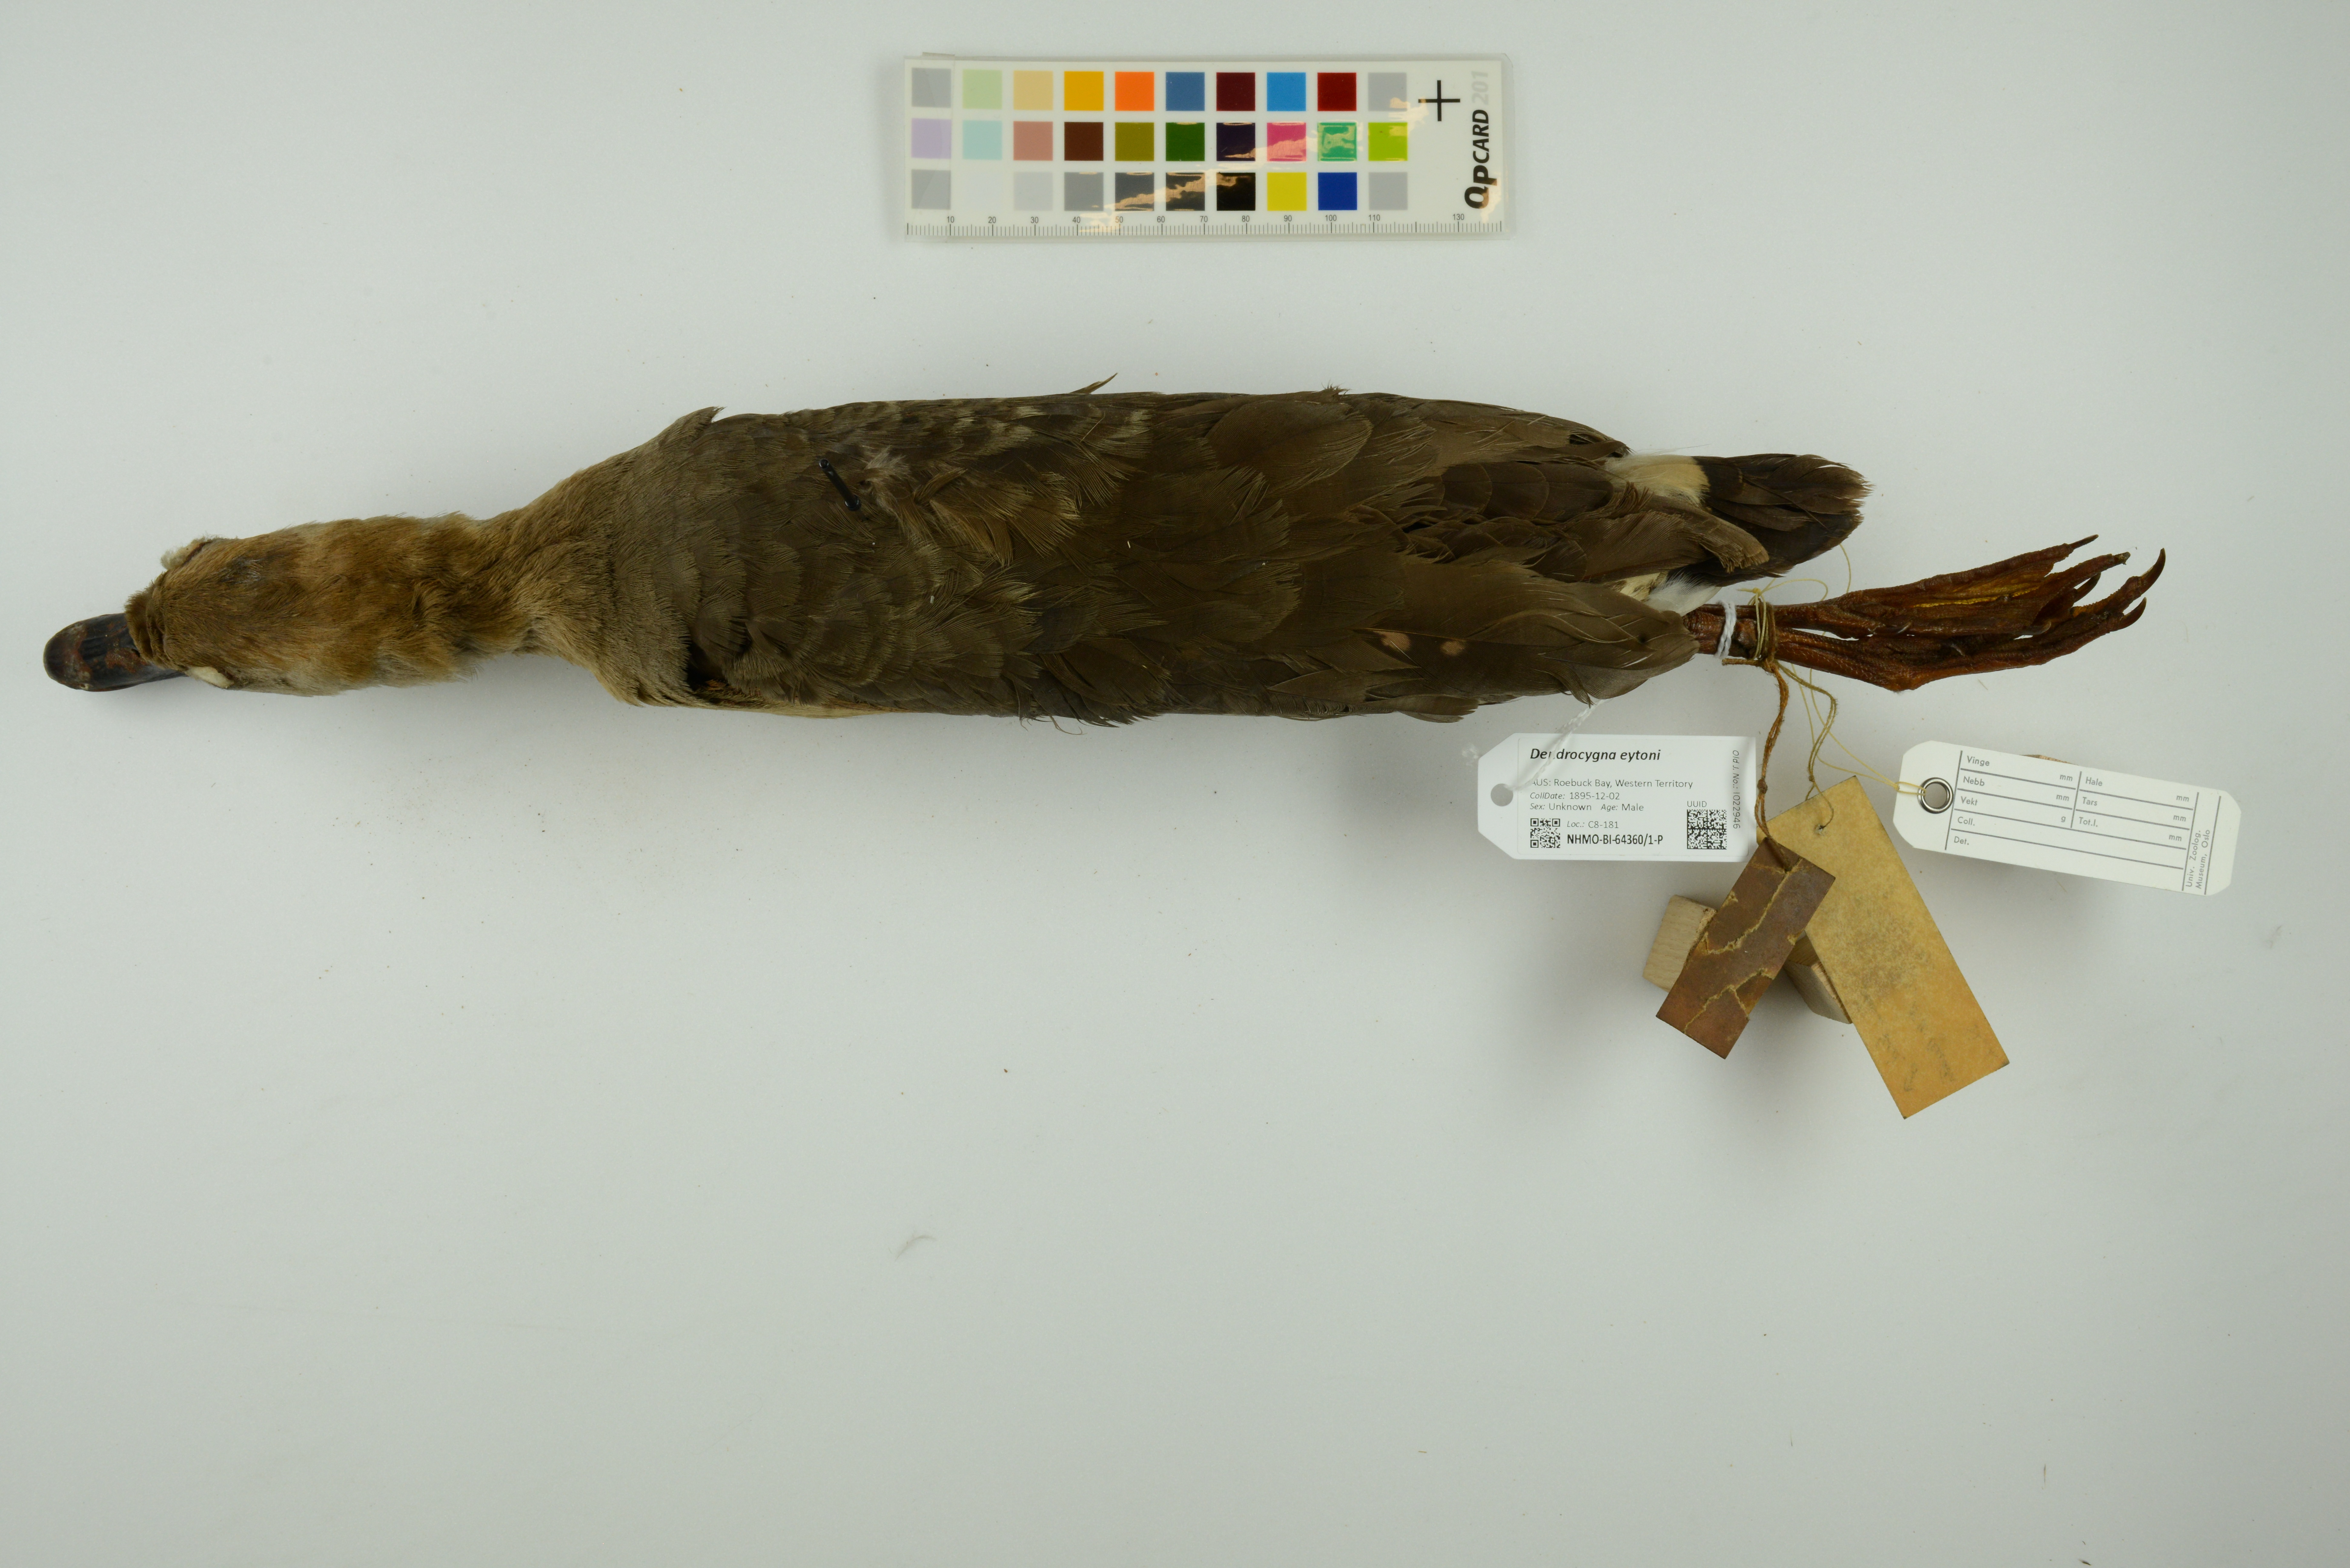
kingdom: Animalia
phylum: Chordata
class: Aves
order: Anseriformes
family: Anatidae
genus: Dendrocygna
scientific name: Dendrocygna eytoni
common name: Plumed whistling-duck
